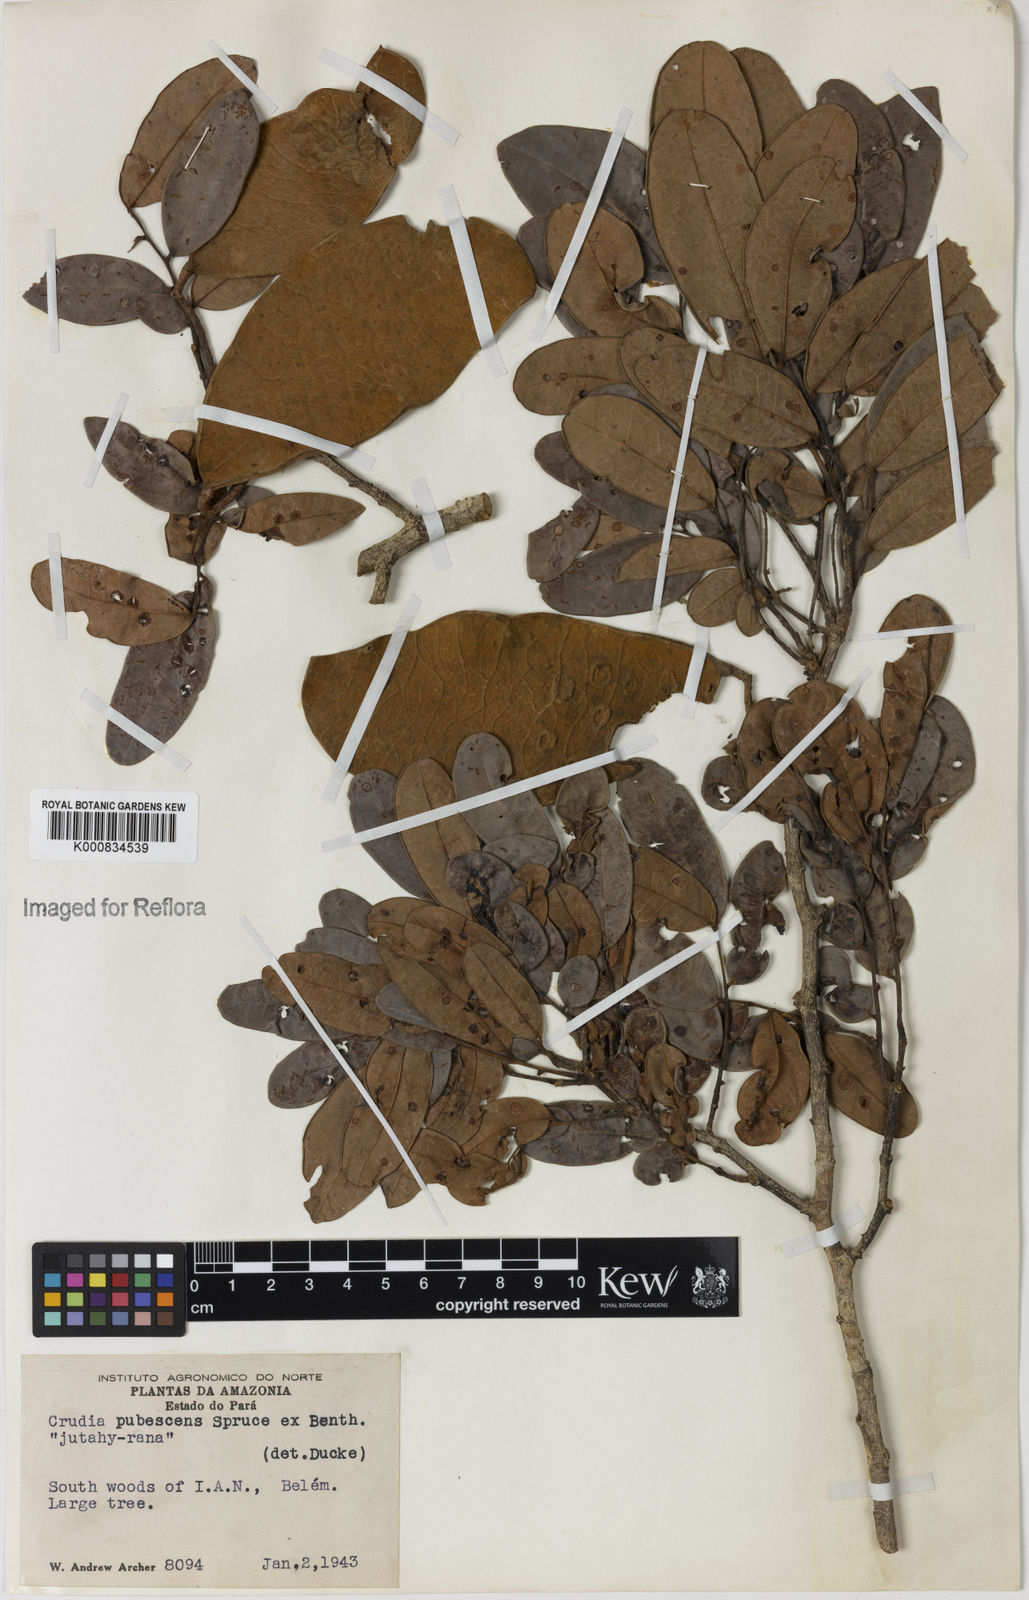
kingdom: Plantae
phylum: Tracheophyta
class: Magnoliopsida
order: Fabales
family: Fabaceae
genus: Crudia
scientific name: Crudia glaberrima
